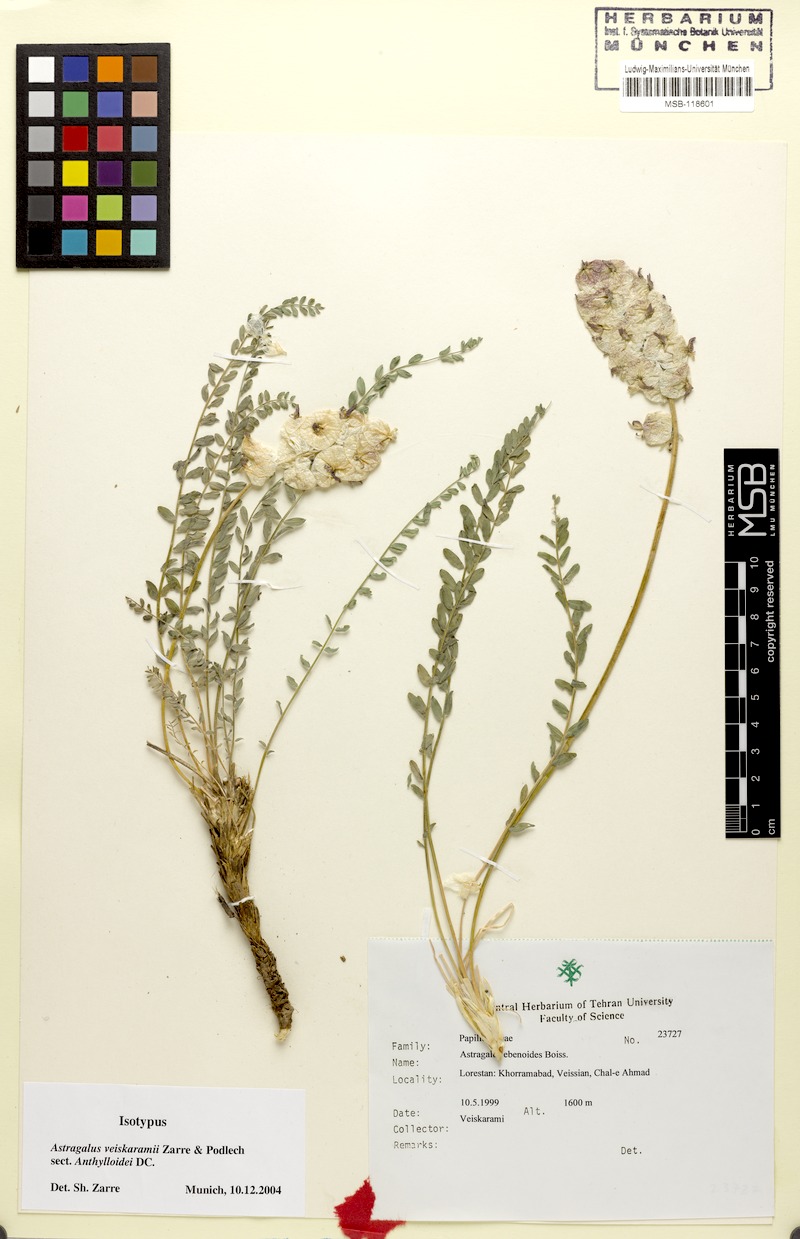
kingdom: Plantae
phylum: Tracheophyta
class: Magnoliopsida
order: Fabales
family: Fabaceae
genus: Astragalus
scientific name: Astragalus veiskaramii
